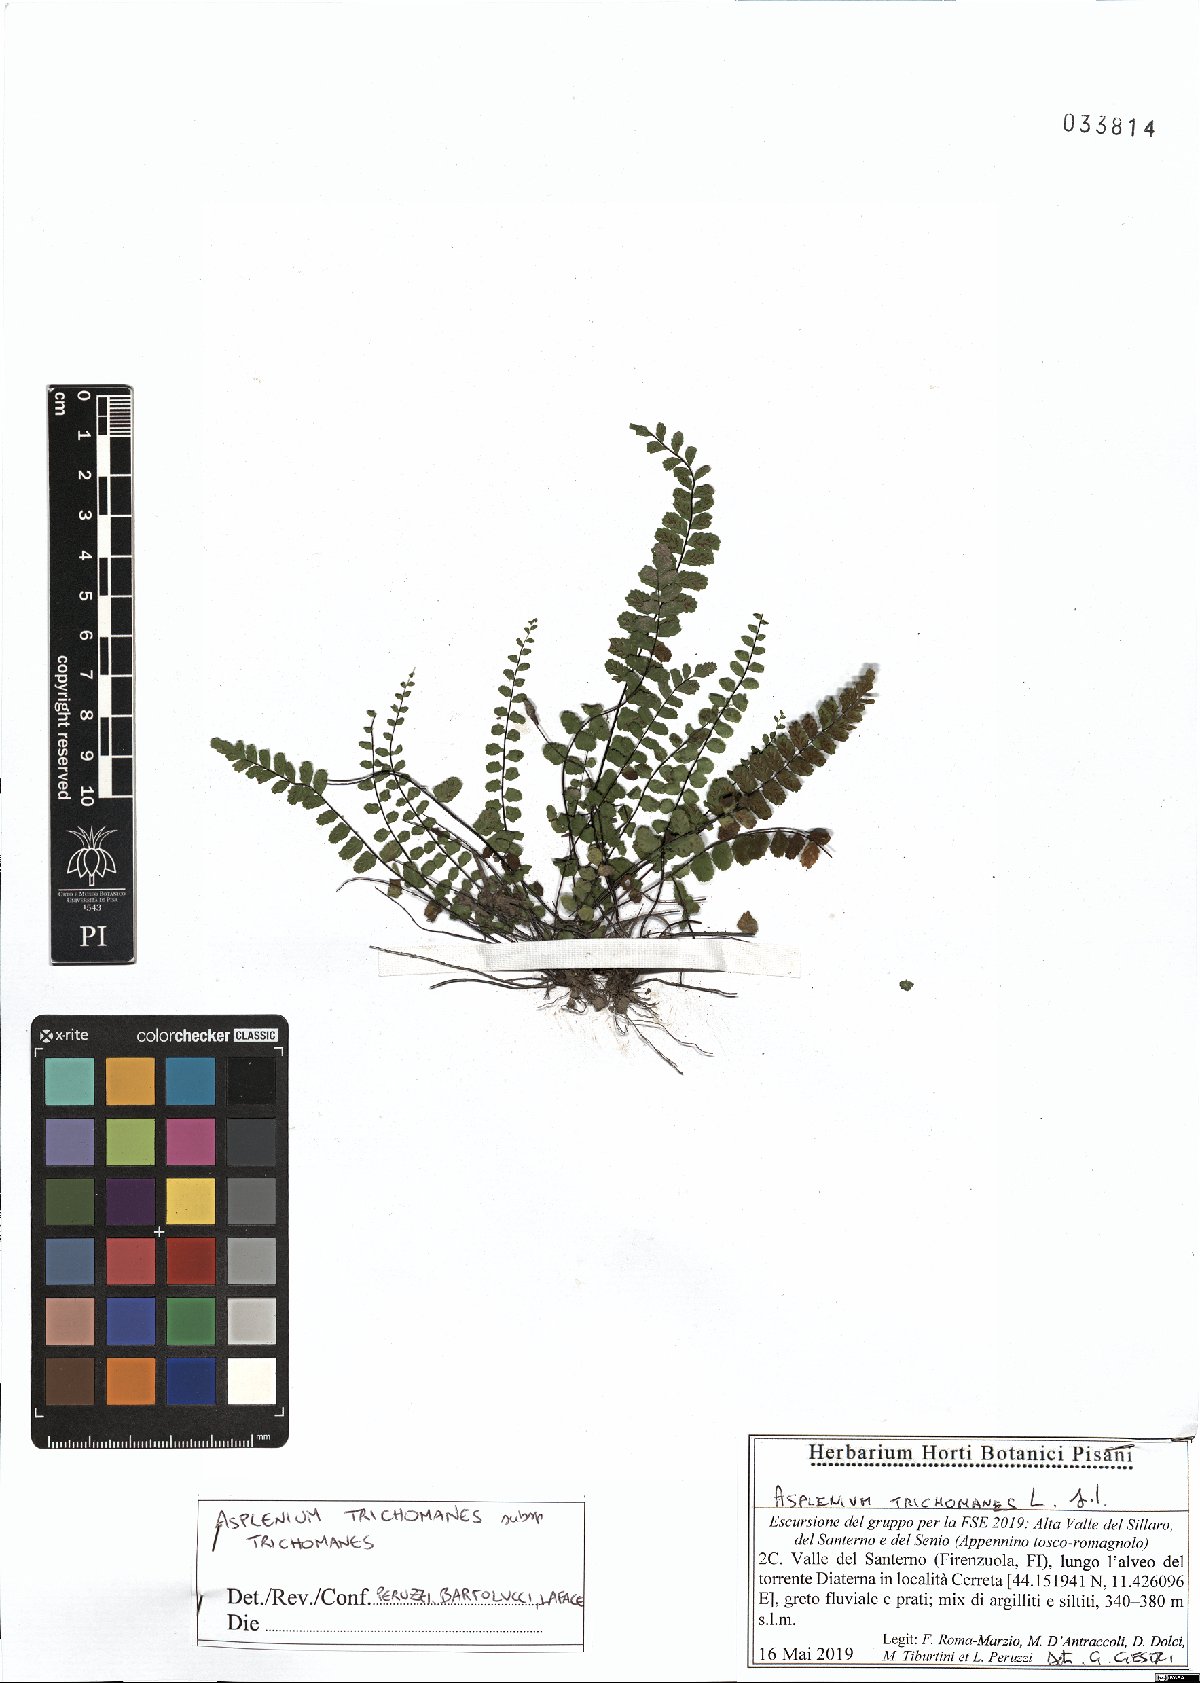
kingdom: Plantae
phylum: Tracheophyta
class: Polypodiopsida
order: Polypodiales
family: Aspleniaceae
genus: Asplenium
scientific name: Asplenium trichomanes
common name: Maidenhair spleenwort
